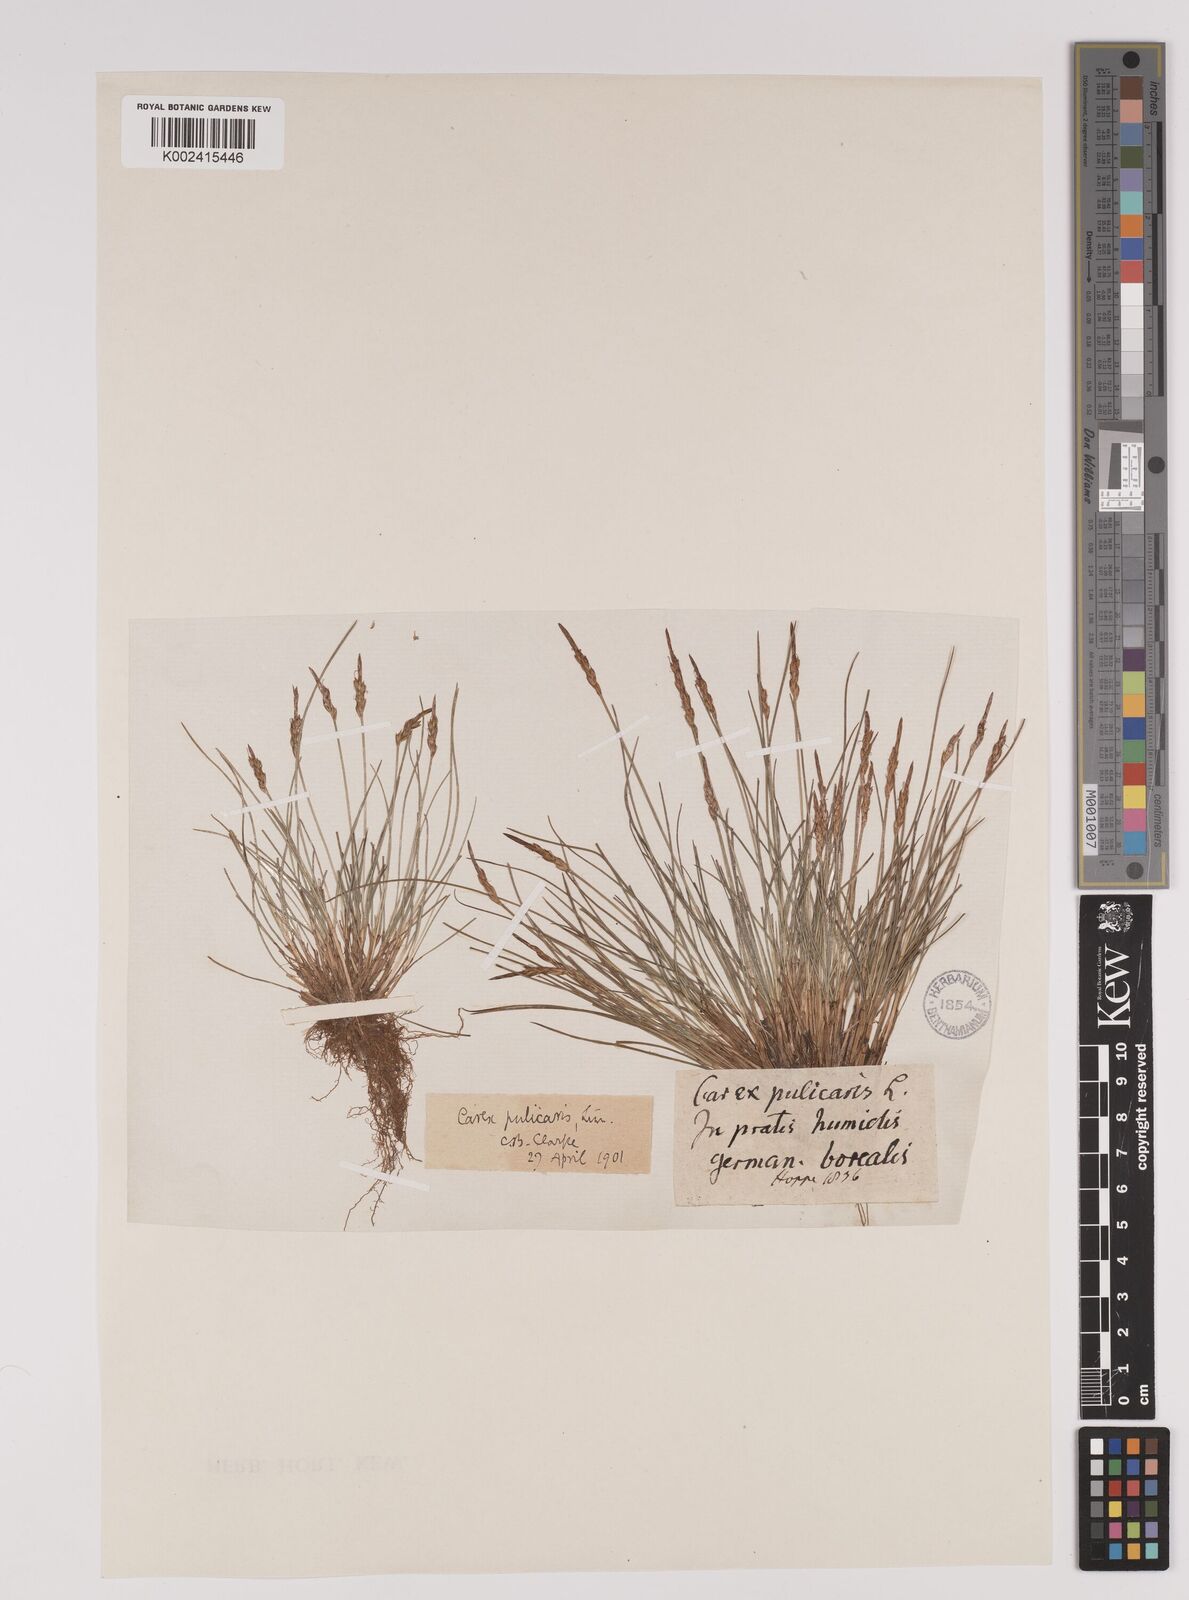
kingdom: Plantae
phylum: Tracheophyta
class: Liliopsida
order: Poales
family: Cyperaceae
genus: Carex
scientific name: Carex pulicaris
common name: Flea sedge
